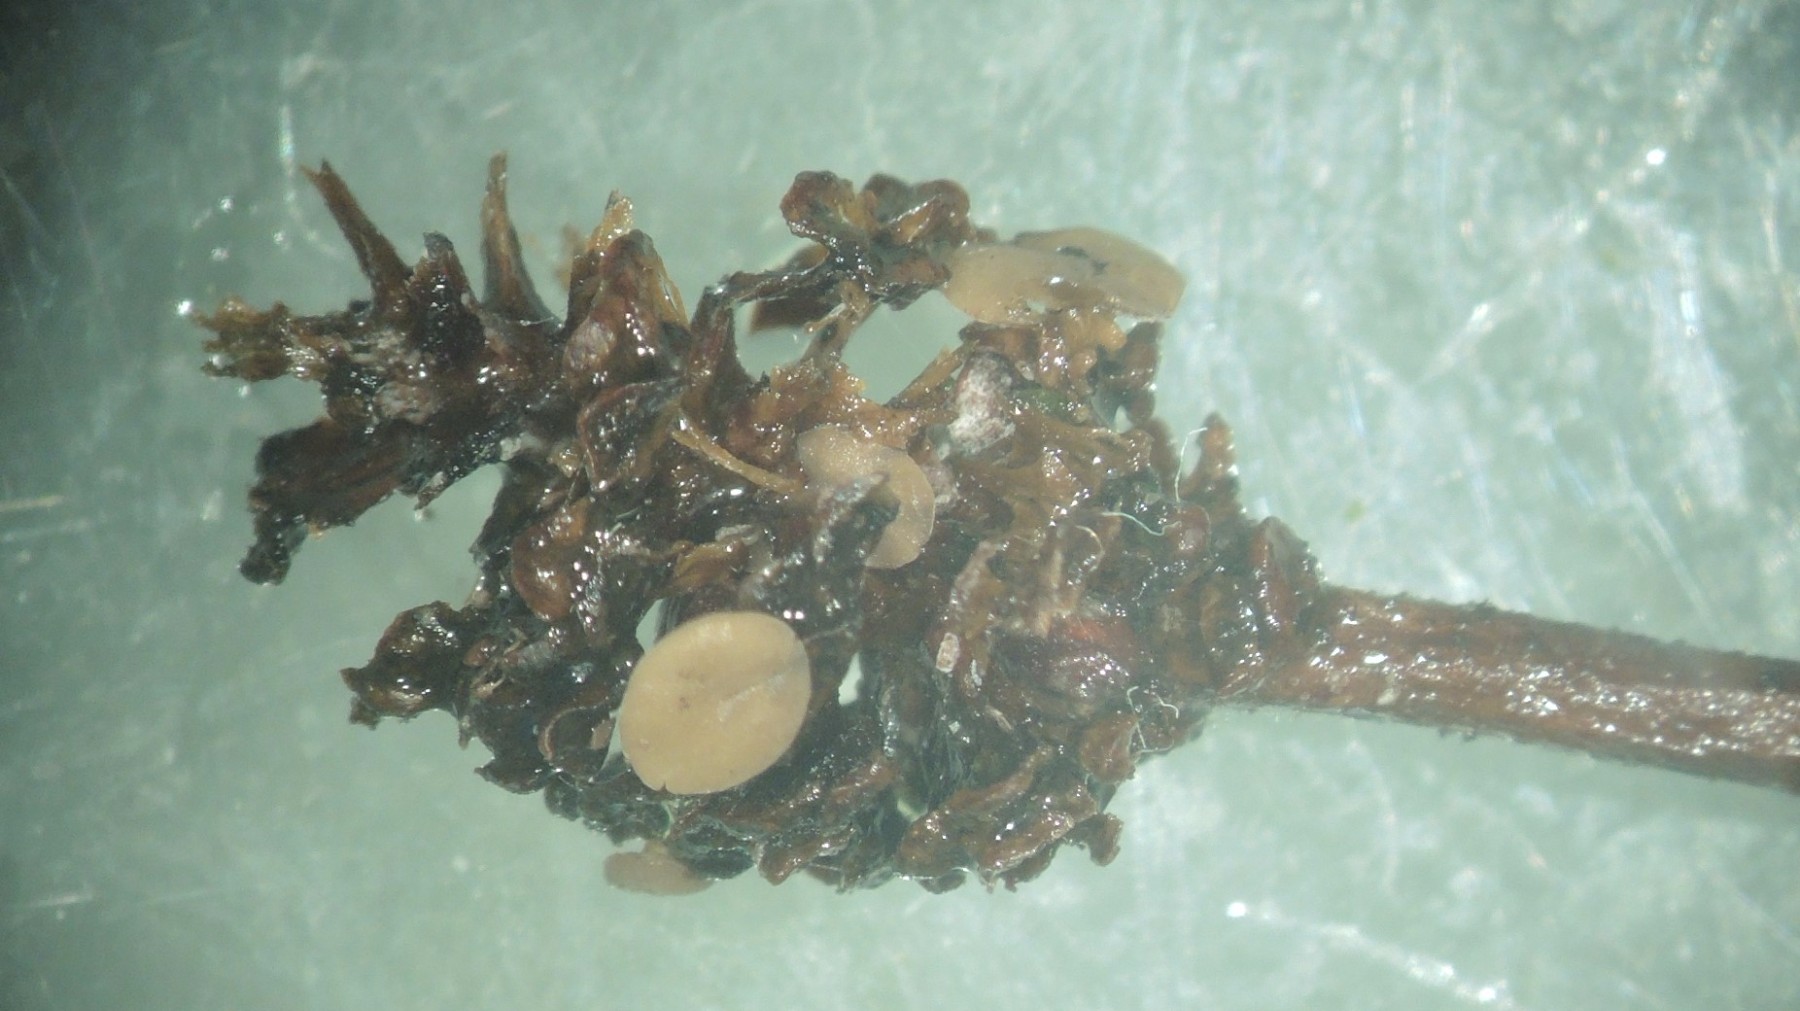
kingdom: Fungi
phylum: Ascomycota
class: Leotiomycetes
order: Helotiales
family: Sclerotiniaceae
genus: Ciboria
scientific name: Ciboria viridifusca
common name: ellekogle-knoldskive
